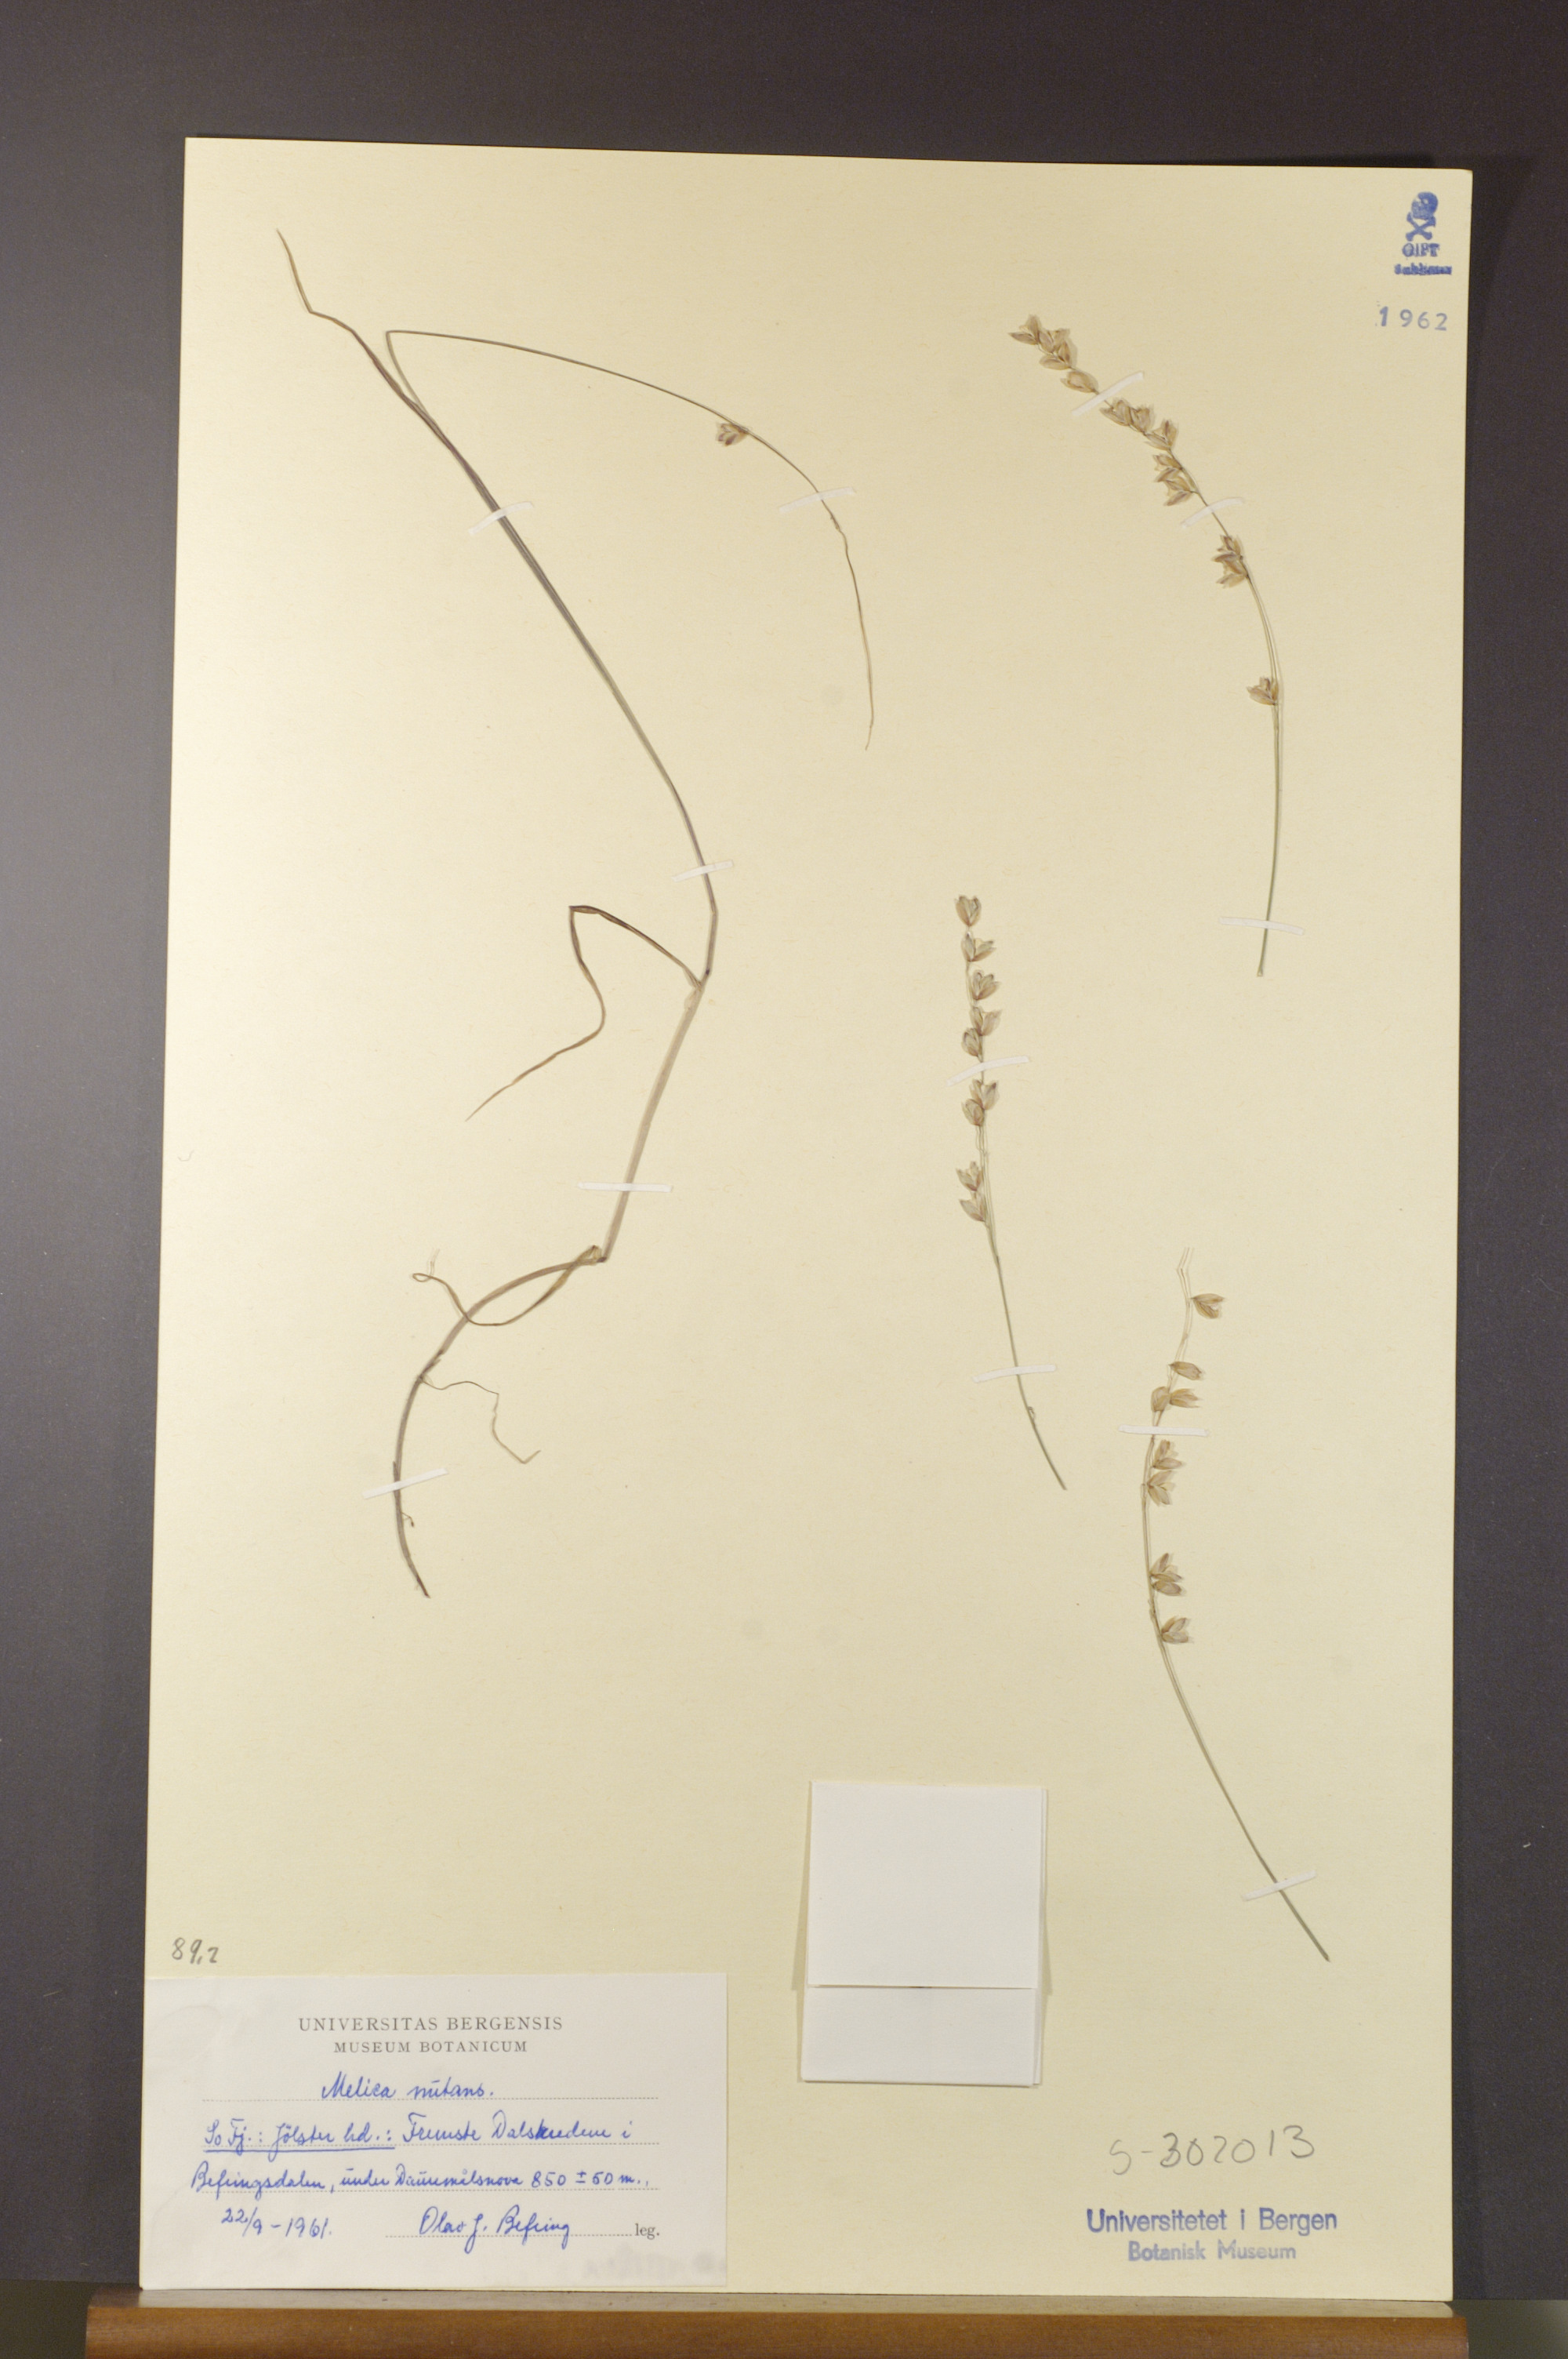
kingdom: Plantae
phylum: Tracheophyta
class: Liliopsida
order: Poales
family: Poaceae
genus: Melica
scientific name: Melica nutans
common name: Mountain melick
